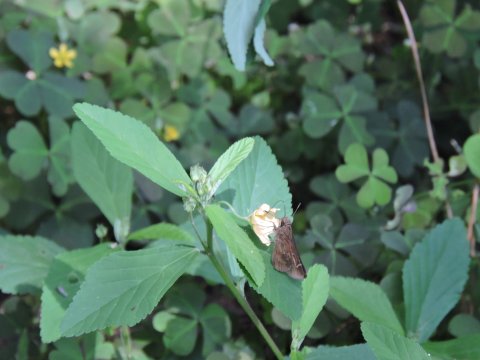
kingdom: Animalia
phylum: Arthropoda
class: Insecta
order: Lepidoptera
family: Hesperiidae
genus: Lerema
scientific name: Lerema accius
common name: Clouded Skipper
